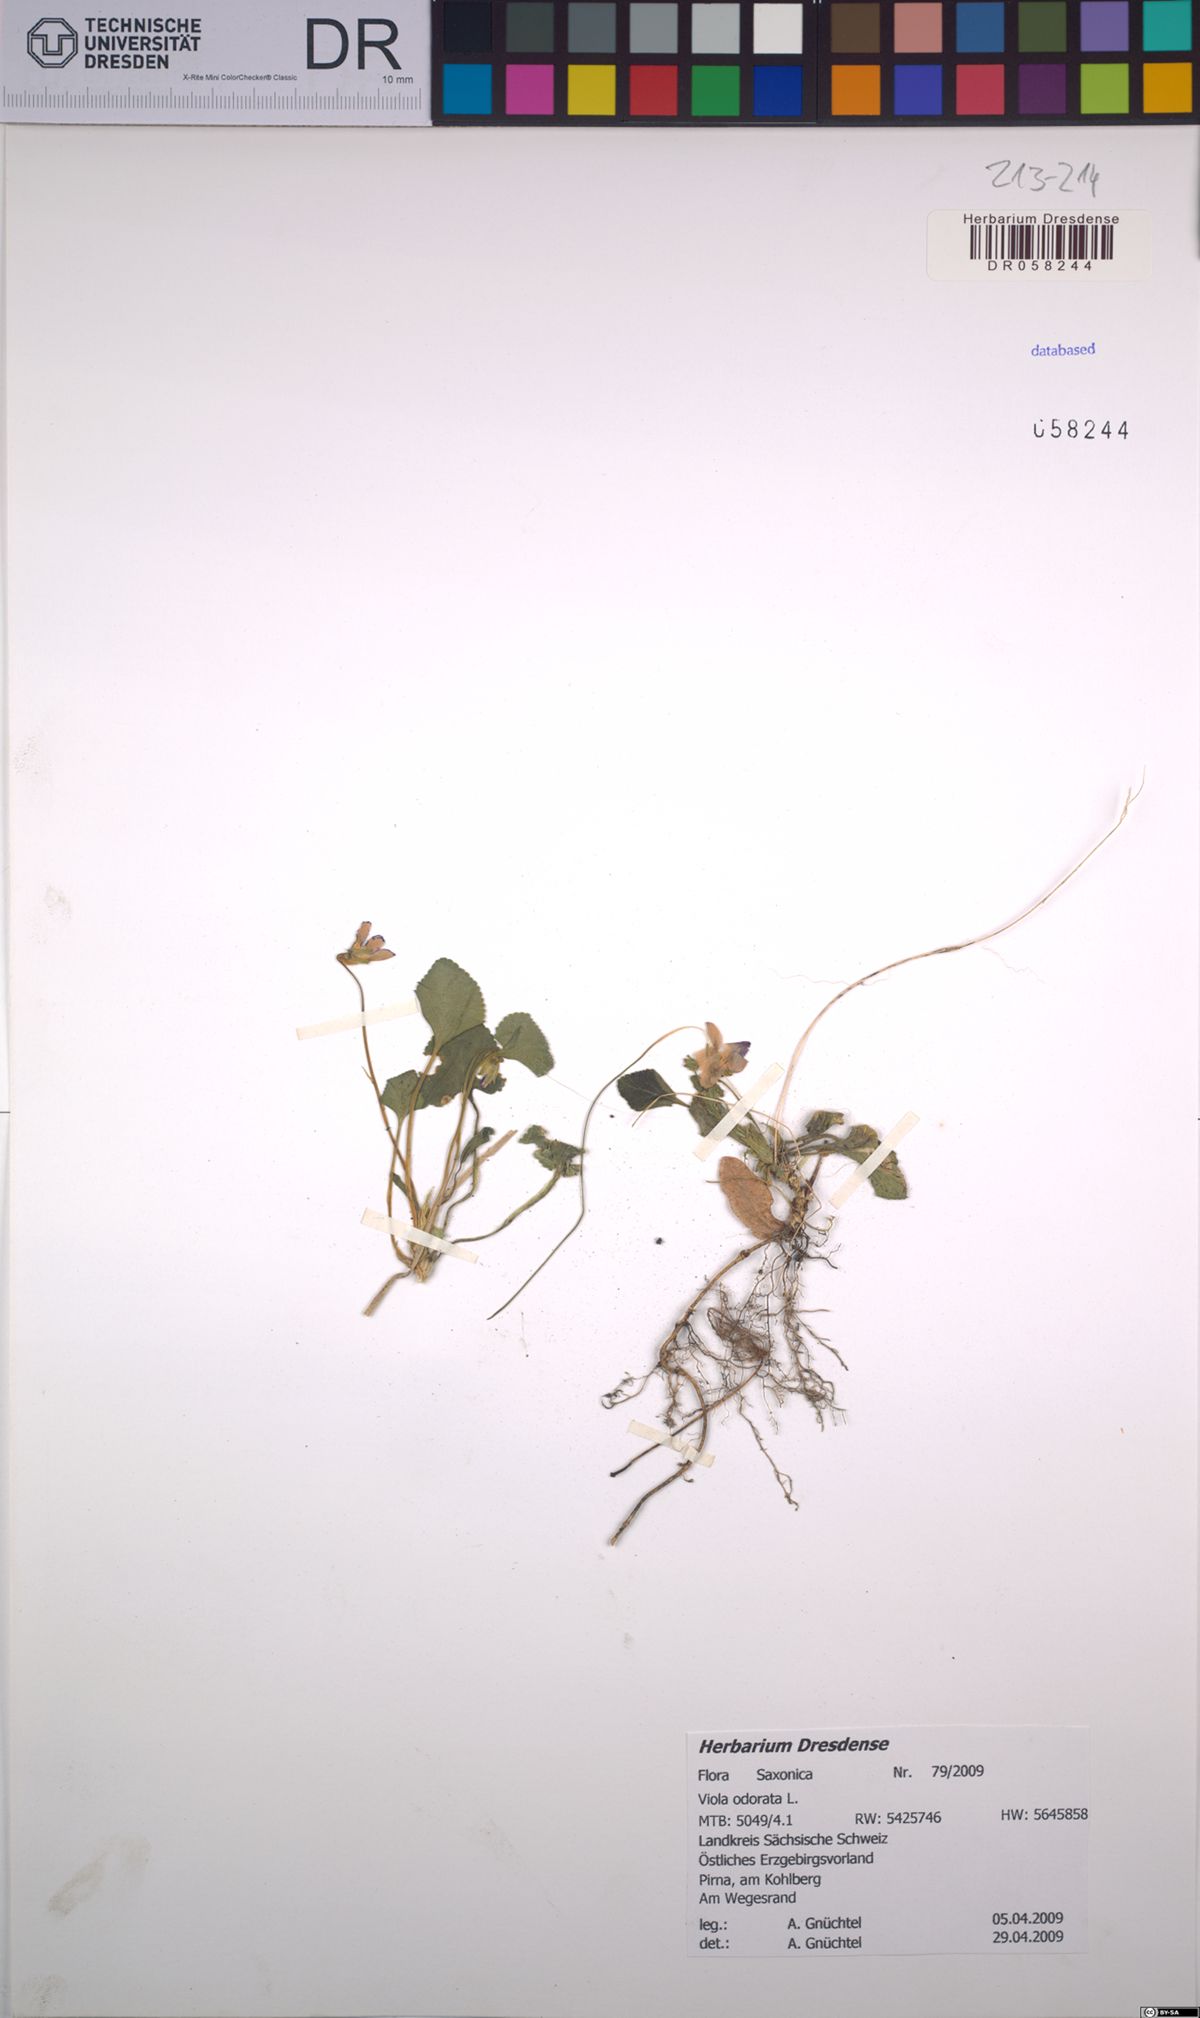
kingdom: Plantae
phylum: Tracheophyta
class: Magnoliopsida
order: Malpighiales
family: Violaceae
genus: Viola
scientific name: Viola odorata
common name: Sweet violet
